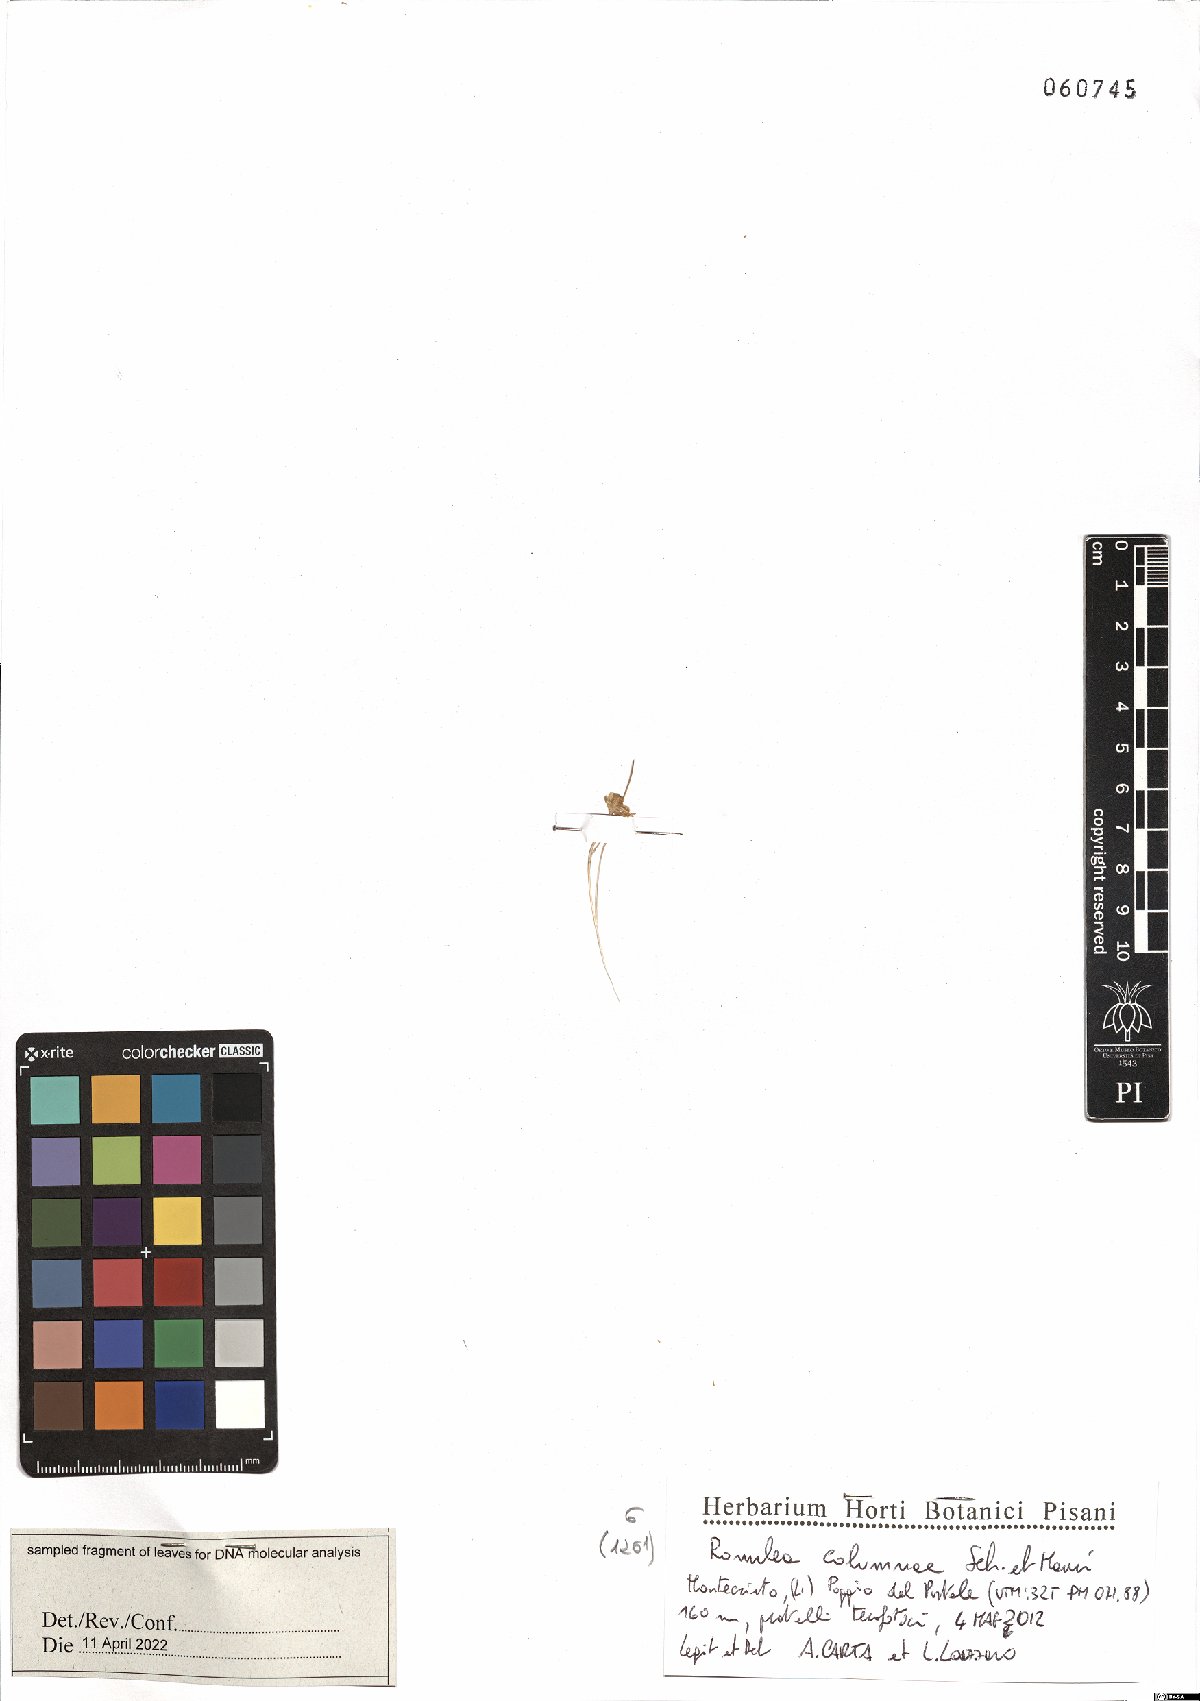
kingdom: Plantae
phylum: Tracheophyta
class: Liliopsida
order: Asparagales
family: Iridaceae
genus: Romulea
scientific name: Romulea columnae
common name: Sand-crocus
